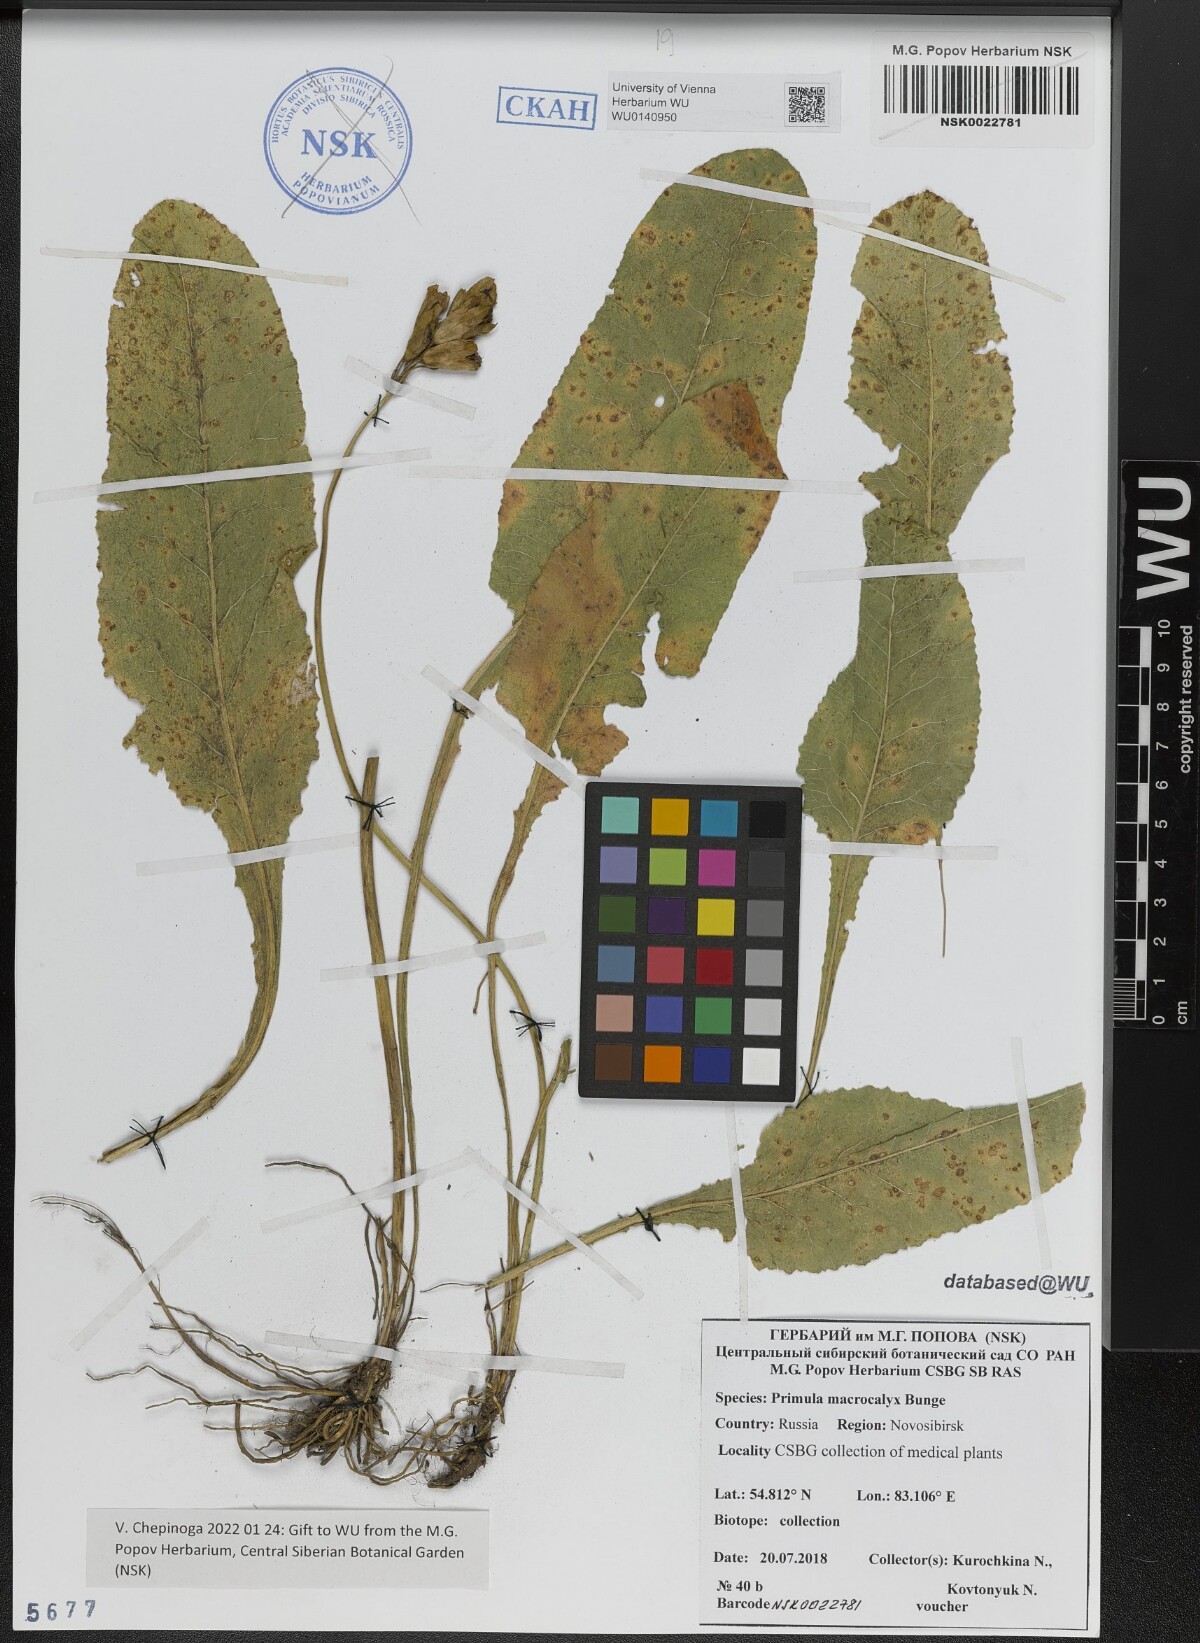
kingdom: Plantae
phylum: Tracheophyta
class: Magnoliopsida
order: Ericales
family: Primulaceae
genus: Primula
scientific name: Primula veris
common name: Cowslip
